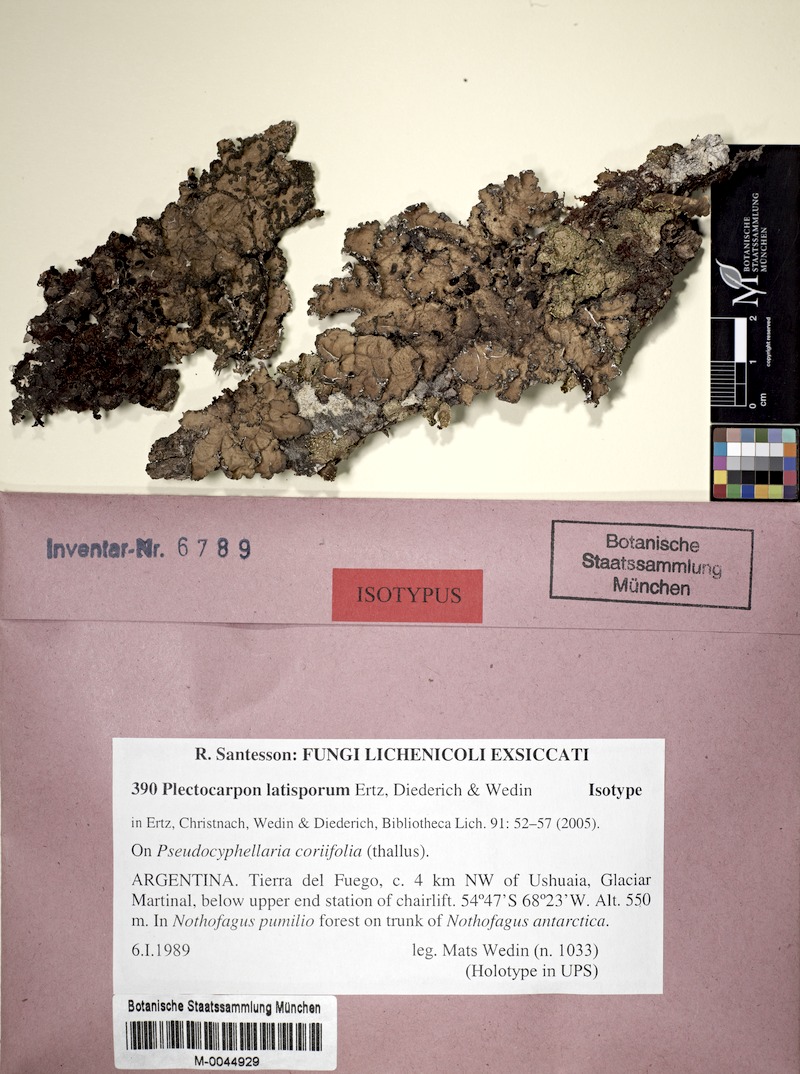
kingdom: Fungi
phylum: Ascomycota
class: Arthoniomycetes
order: Arthoniales
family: Lecanographaceae
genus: Plectocarpon
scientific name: Plectocarpon latisporum
